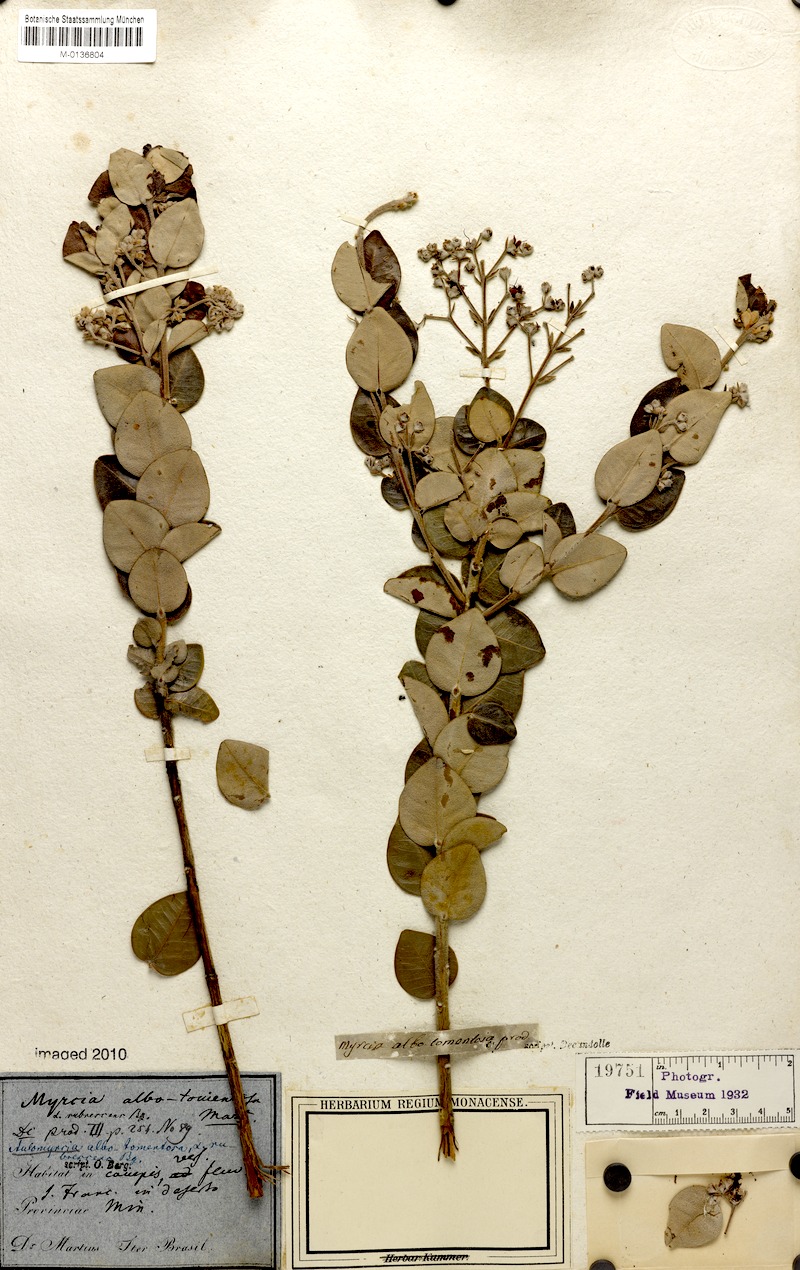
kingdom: Plantae
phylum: Tracheophyta
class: Magnoliopsida
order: Myrtales
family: Myrtaceae
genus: Myrcia
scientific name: Myrcia albotomentosa
